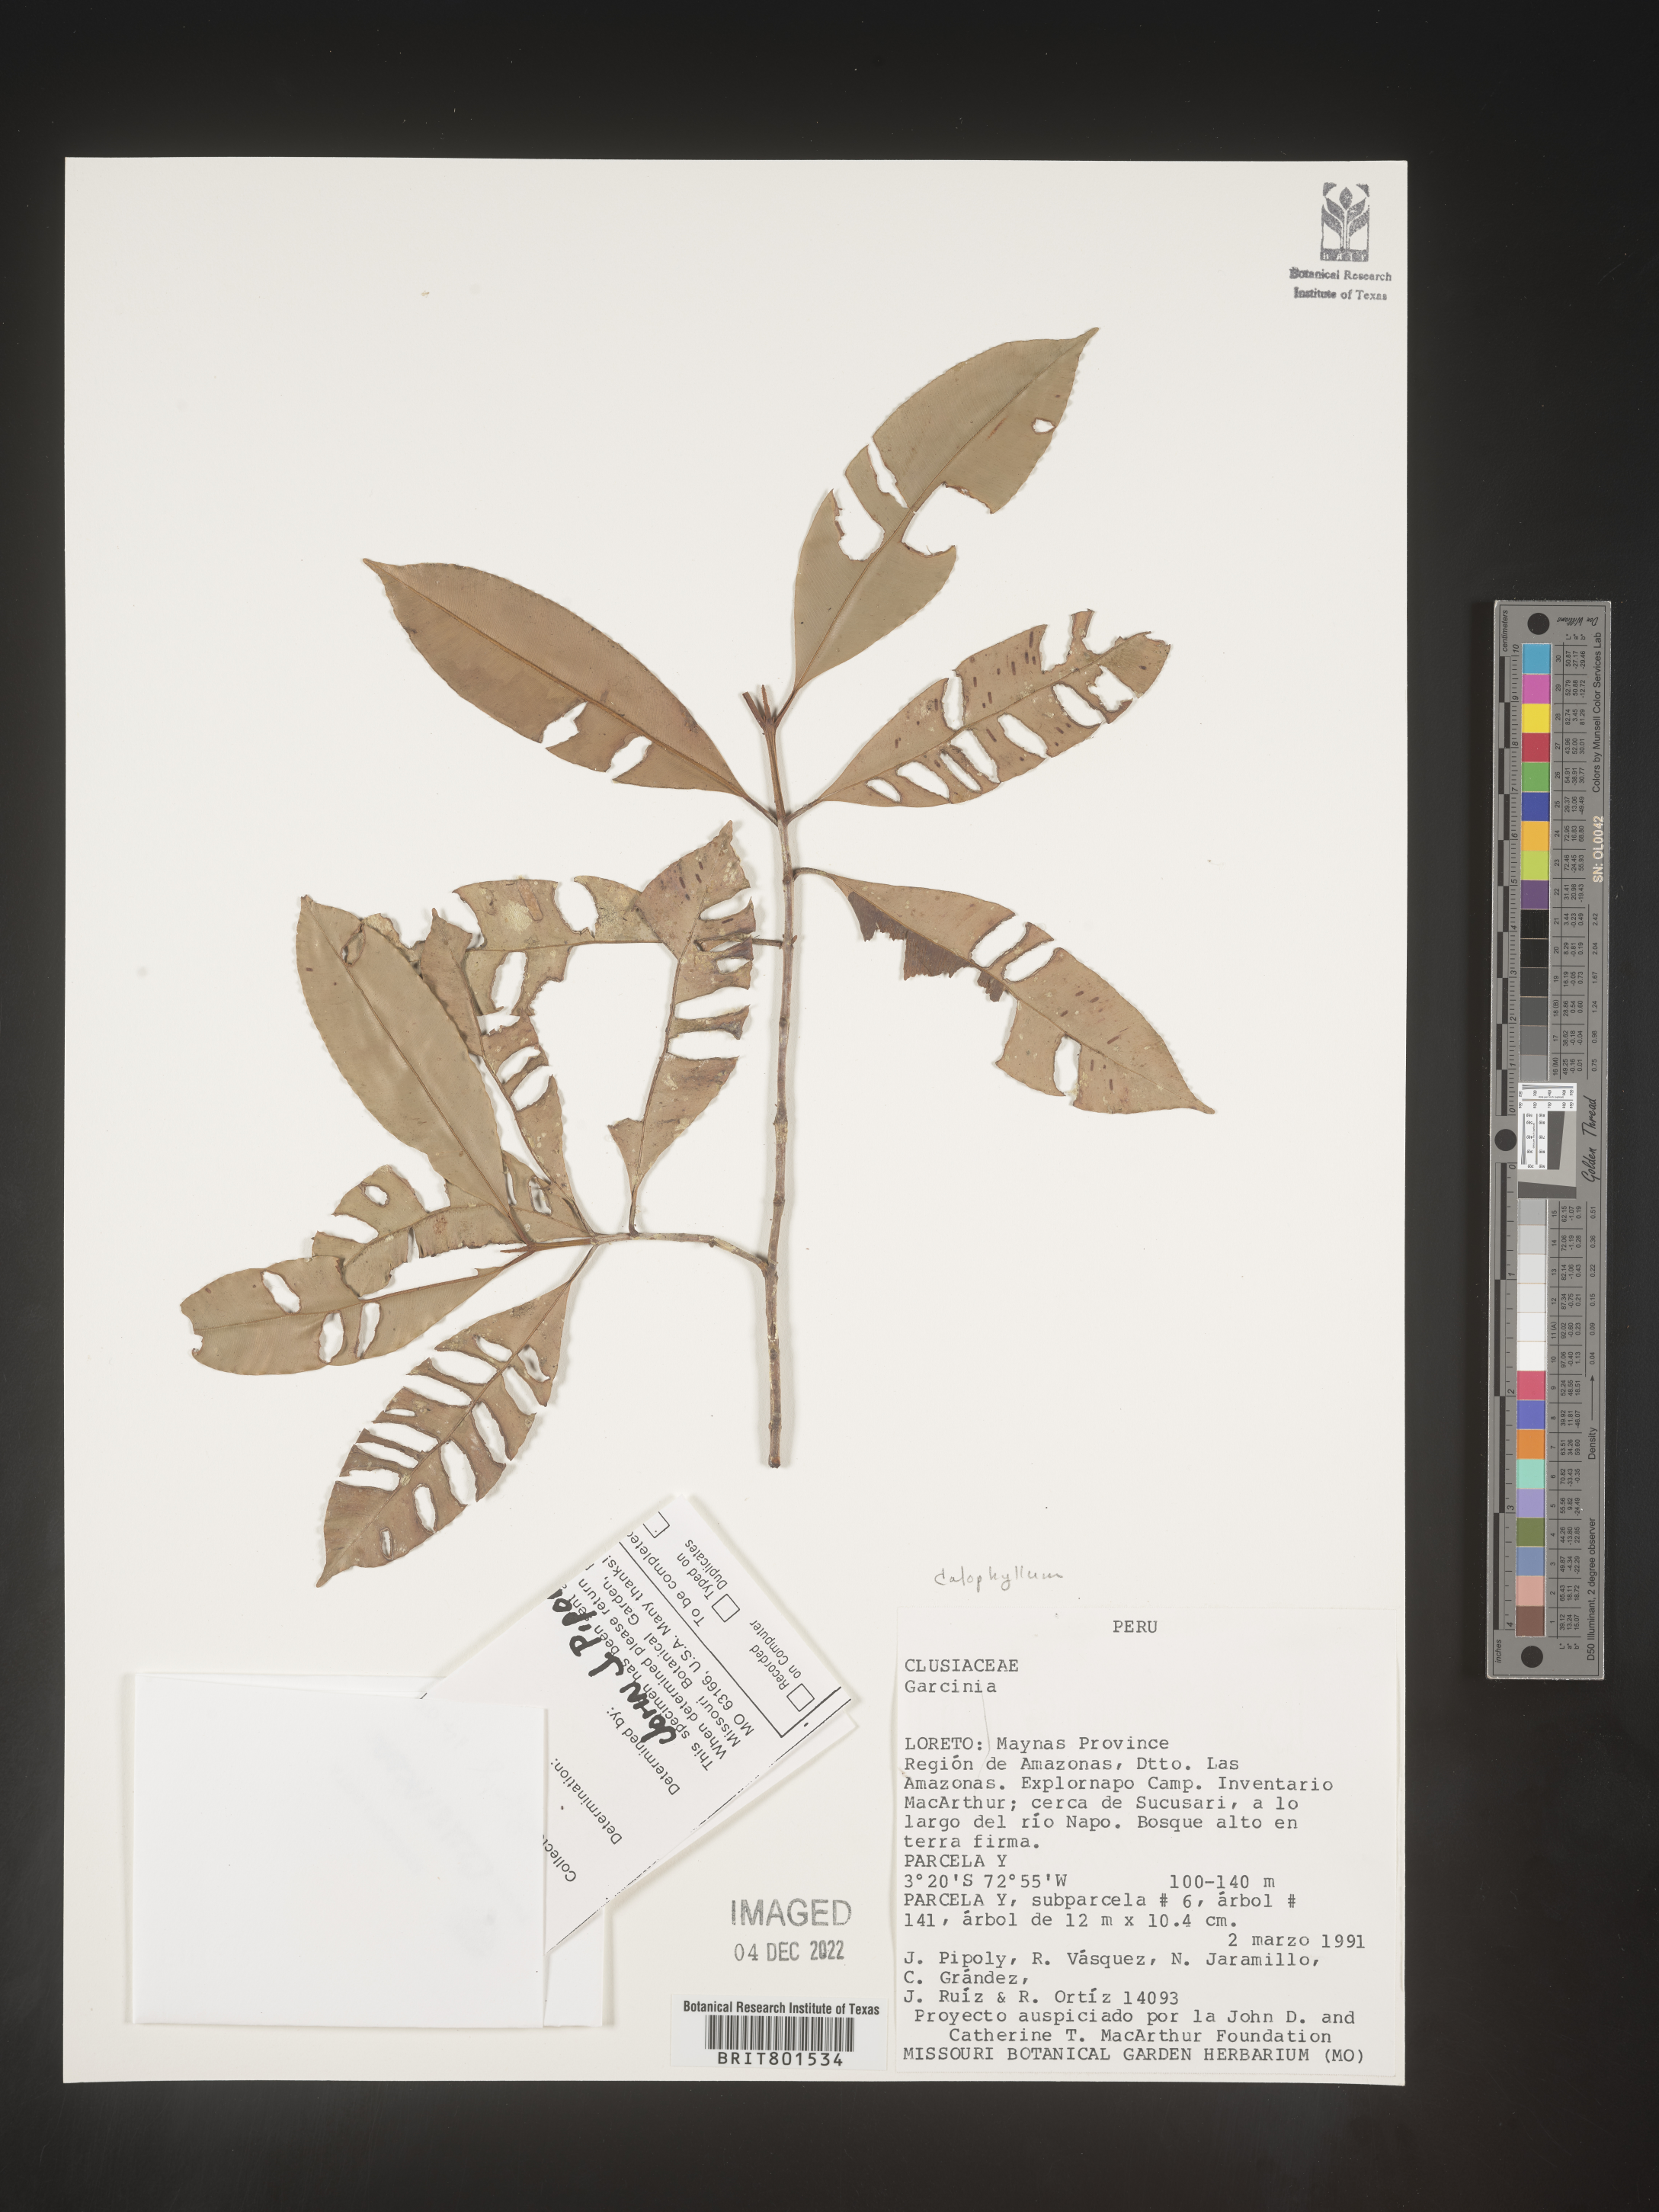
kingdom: Plantae
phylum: Tracheophyta
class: Magnoliopsida
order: Malpighiales
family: Calophyllaceae
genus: Calophyllum
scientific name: Calophyllum
